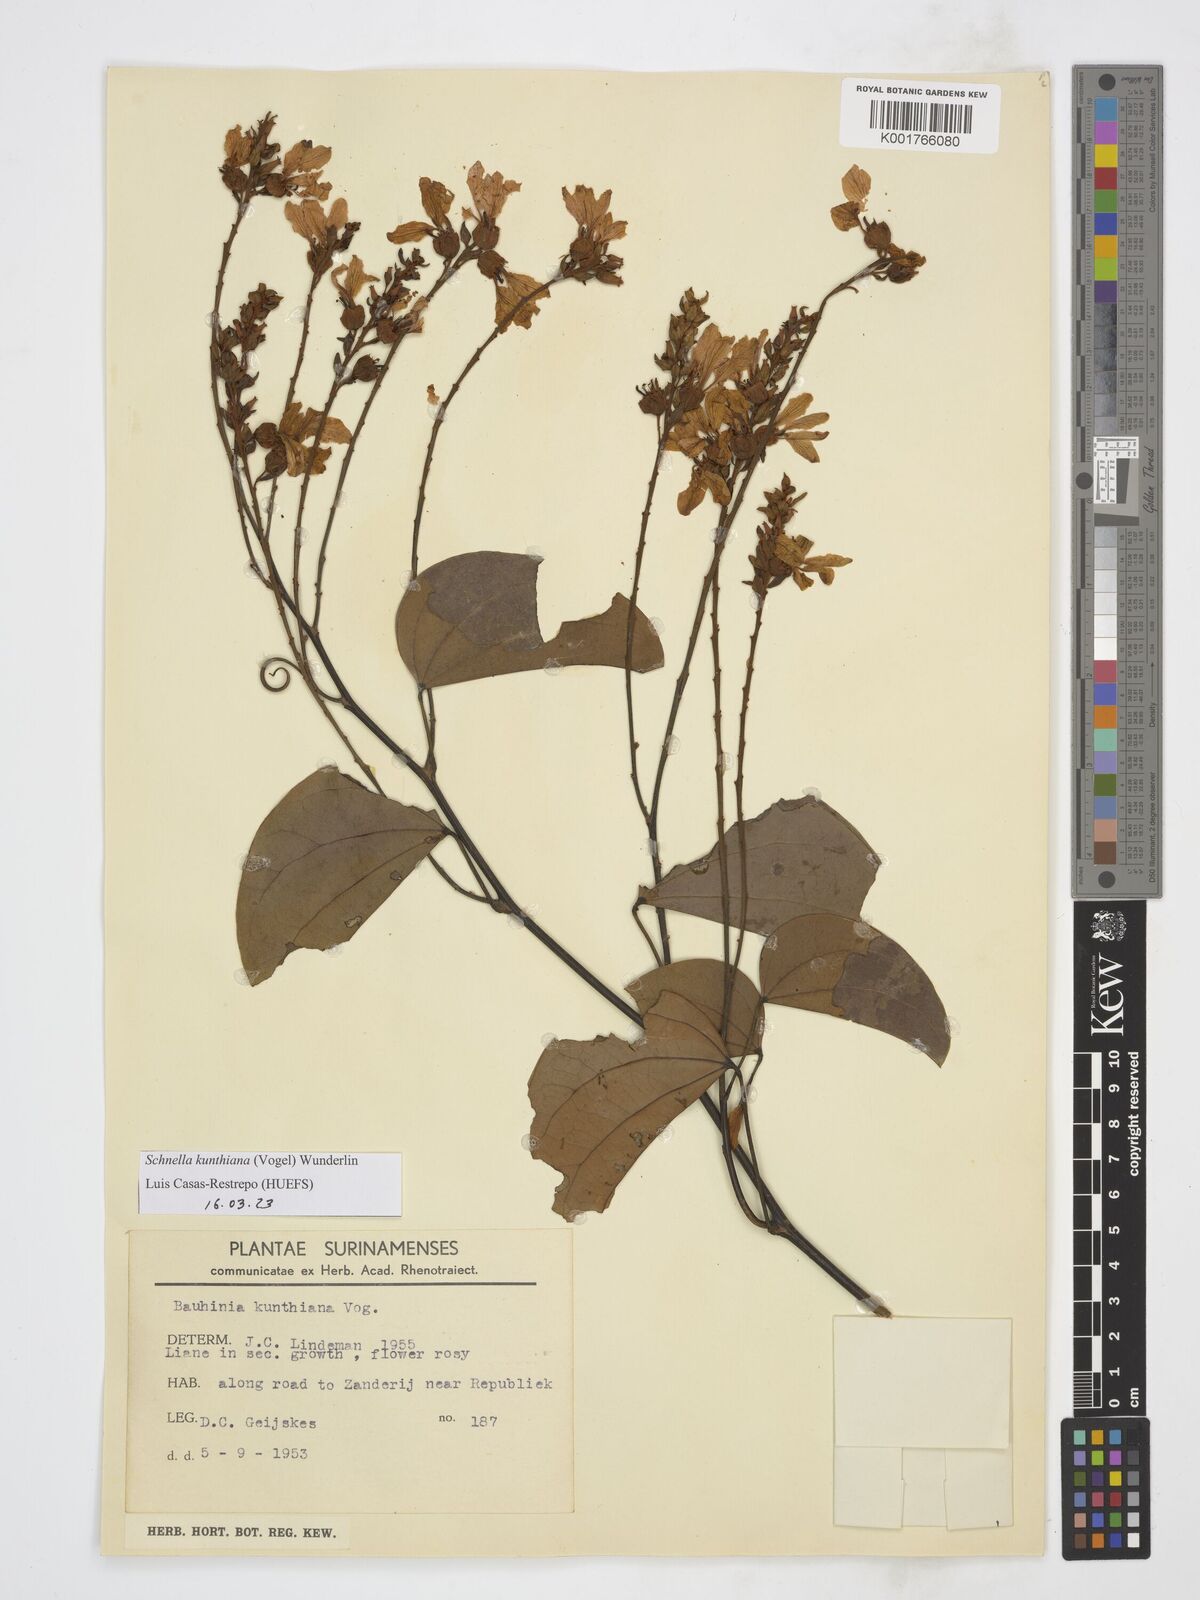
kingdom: Plantae
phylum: Tracheophyta
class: Magnoliopsida
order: Fabales
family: Fabaceae
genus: Schnella
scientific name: Schnella kunthiana
